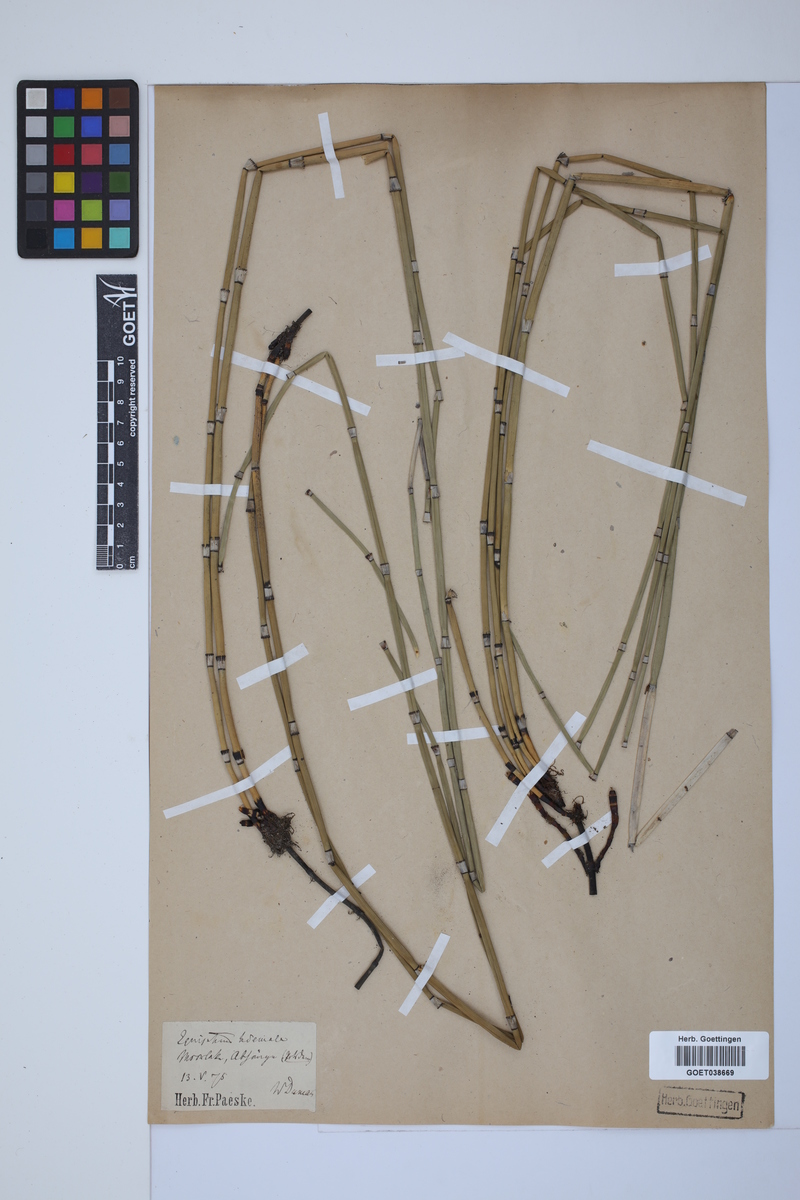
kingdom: Plantae
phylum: Tracheophyta
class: Polypodiopsida
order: Equisetales
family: Equisetaceae
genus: Equisetum
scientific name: Equisetum hyemale
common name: Rough horsetail
